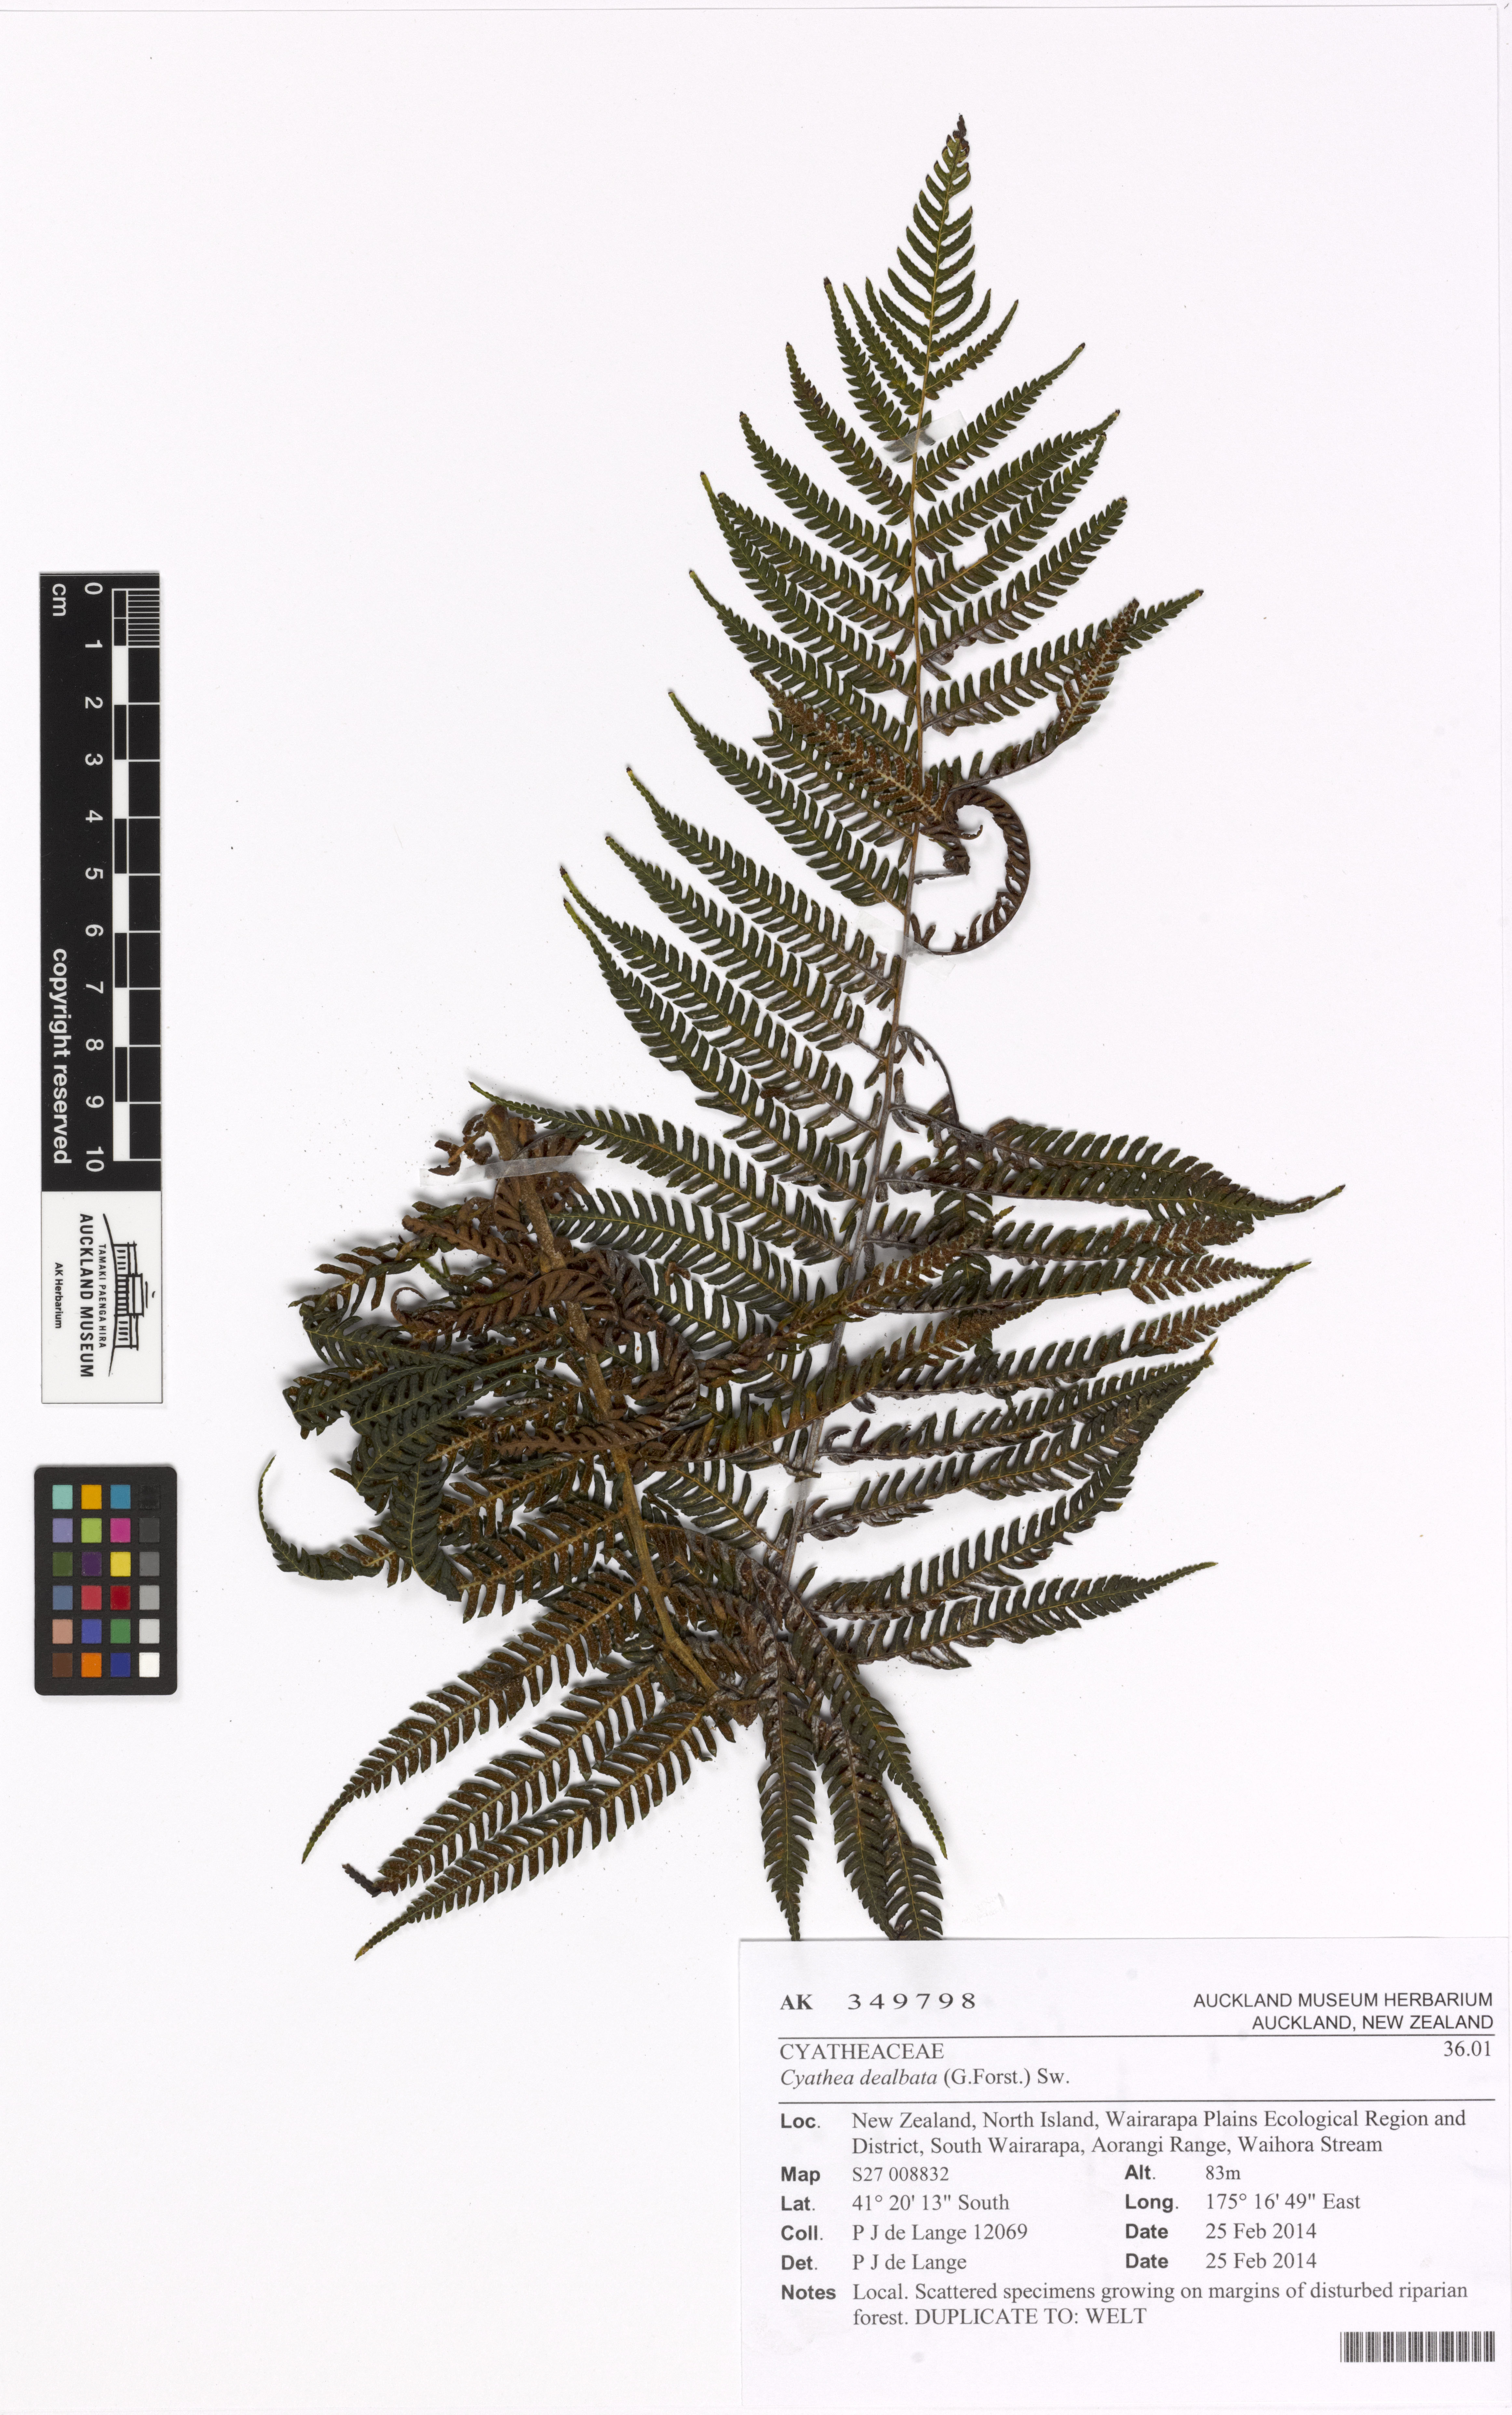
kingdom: Plantae
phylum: Tracheophyta
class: Polypodiopsida
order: Cyatheales
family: Cyatheaceae
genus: Alsophila
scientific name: Alsophila dealbata
